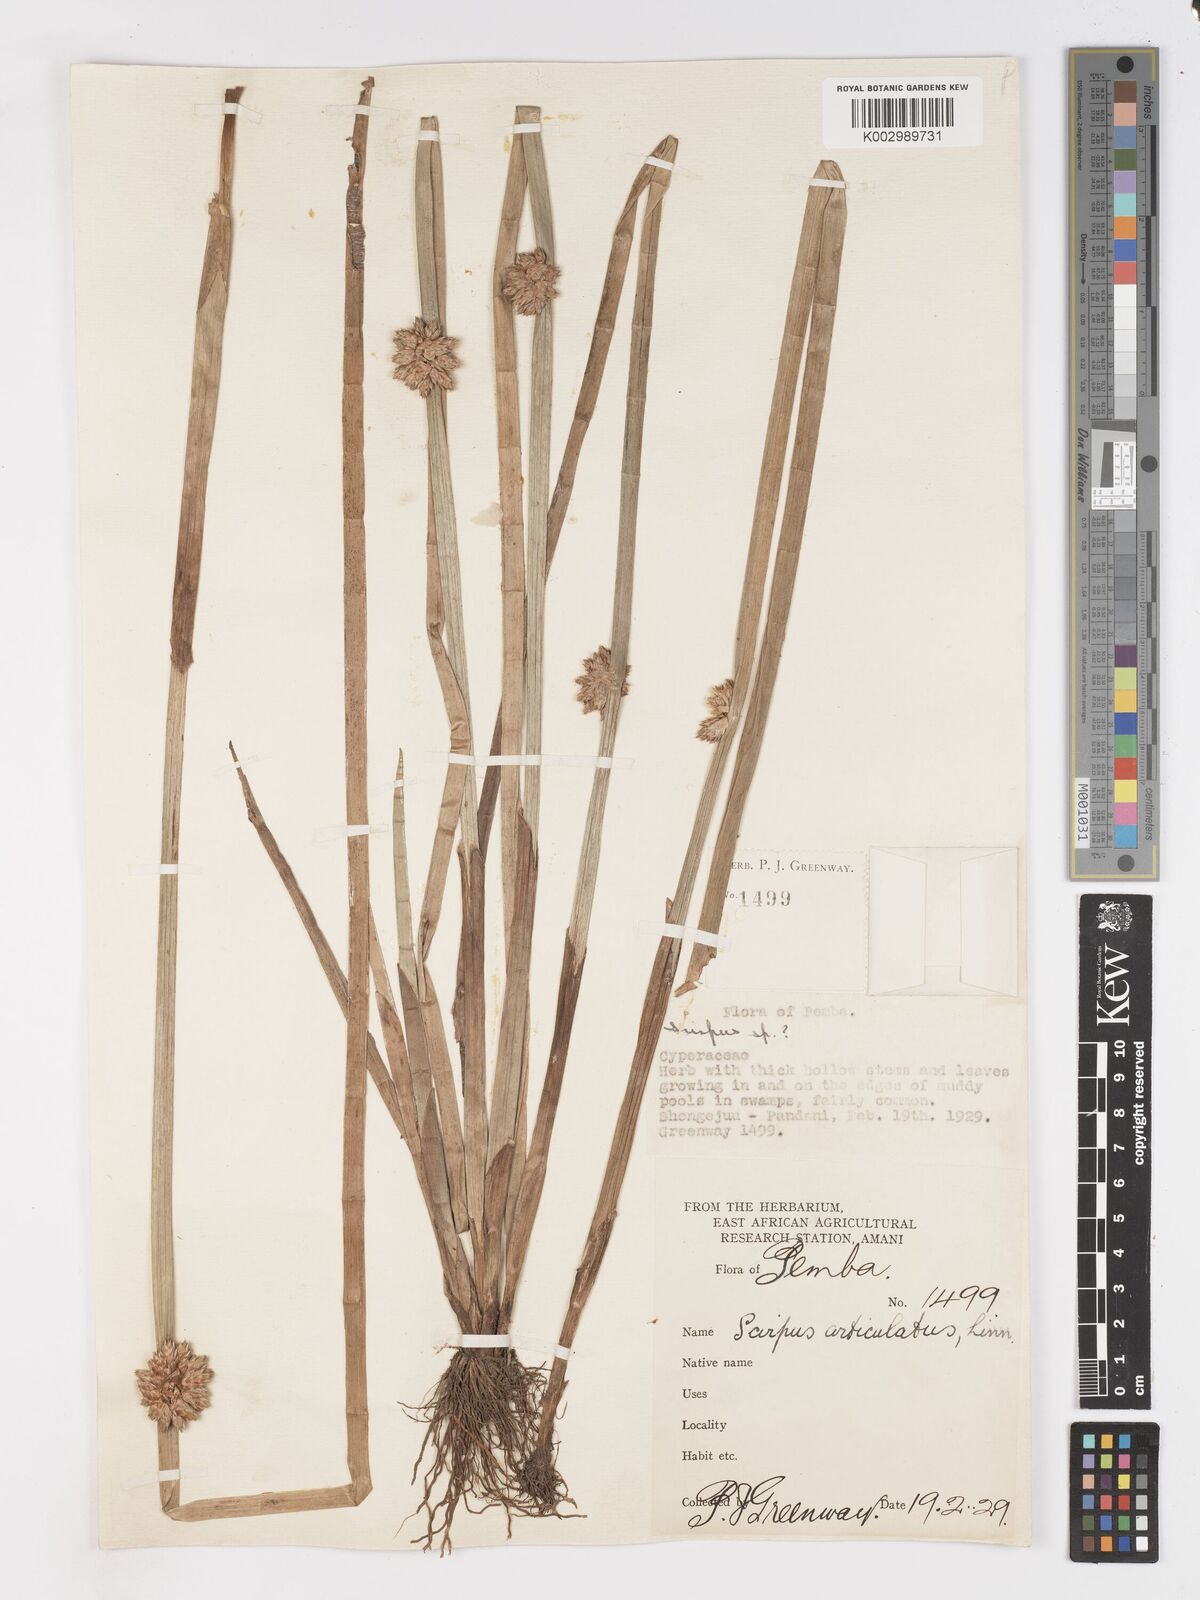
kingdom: Plantae
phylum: Tracheophyta
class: Liliopsida
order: Poales
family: Cyperaceae
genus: Schoenoplectiella
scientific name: Schoenoplectiella articulata
